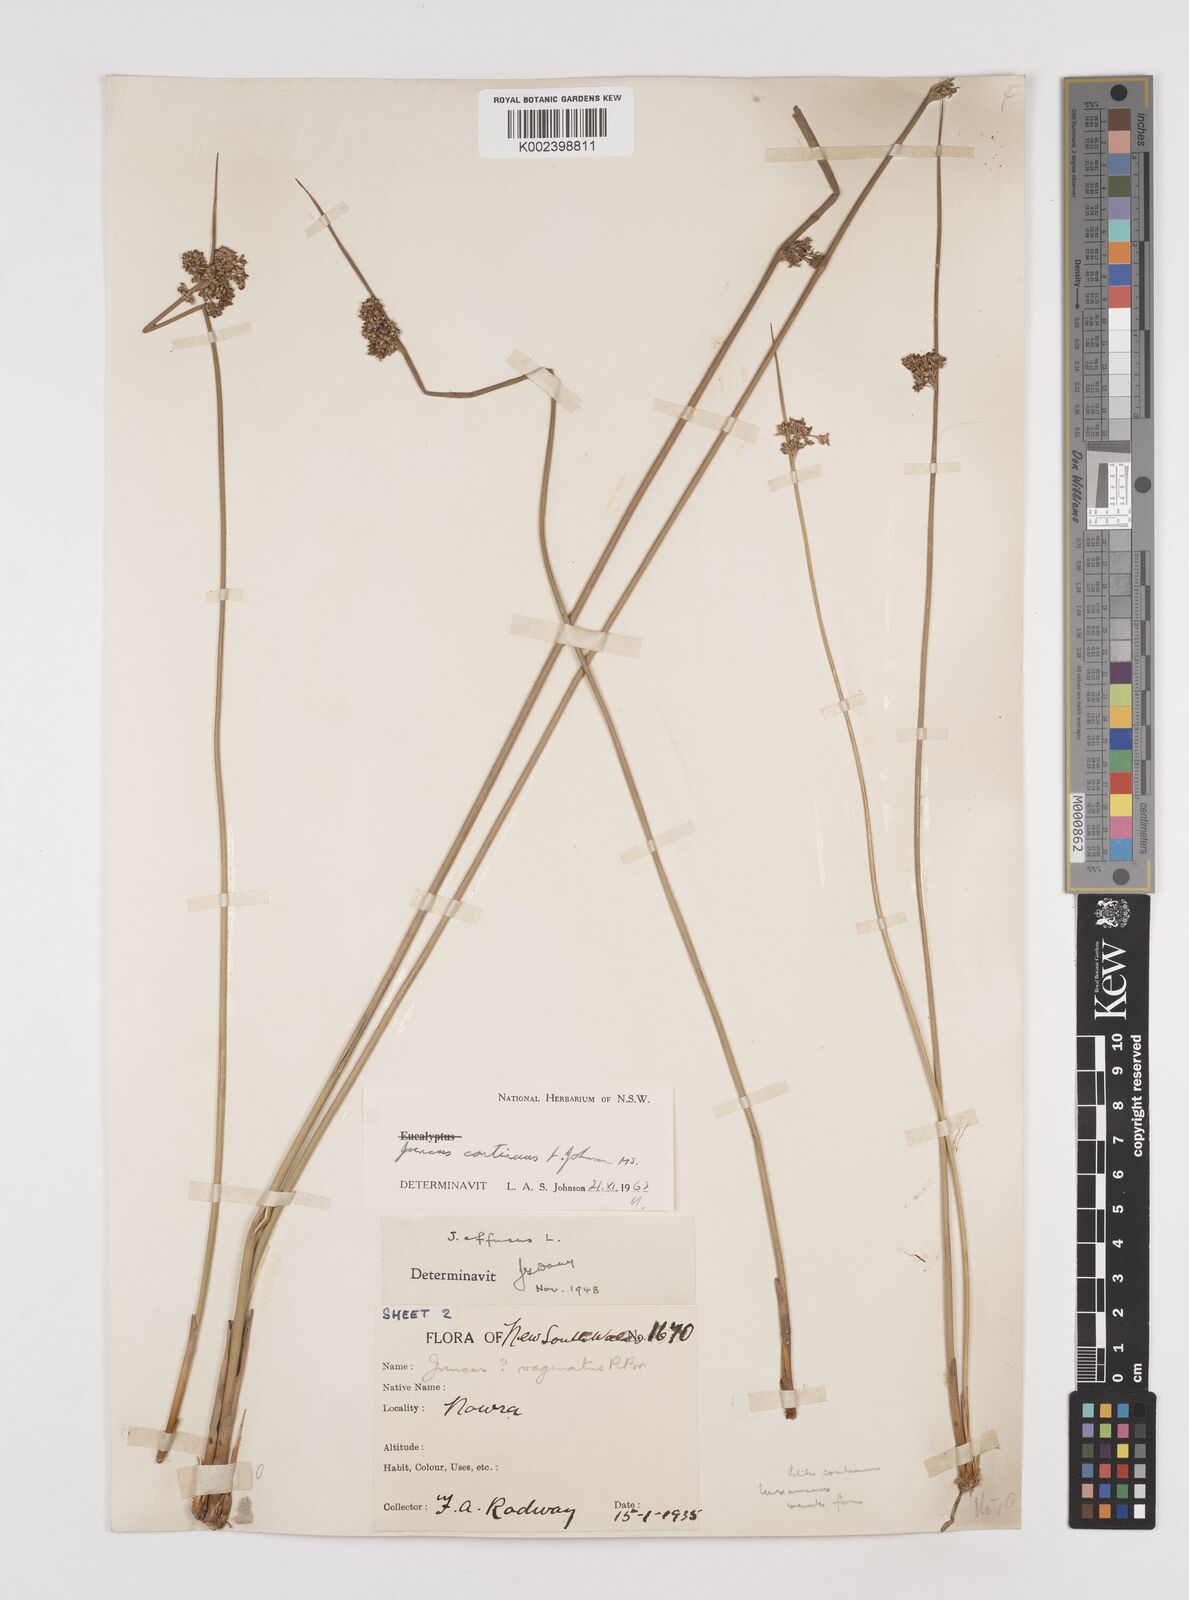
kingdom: Plantae
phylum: Tracheophyta
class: Liliopsida
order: Poales
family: Juncaceae
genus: Juncus
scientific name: Juncus continuus
